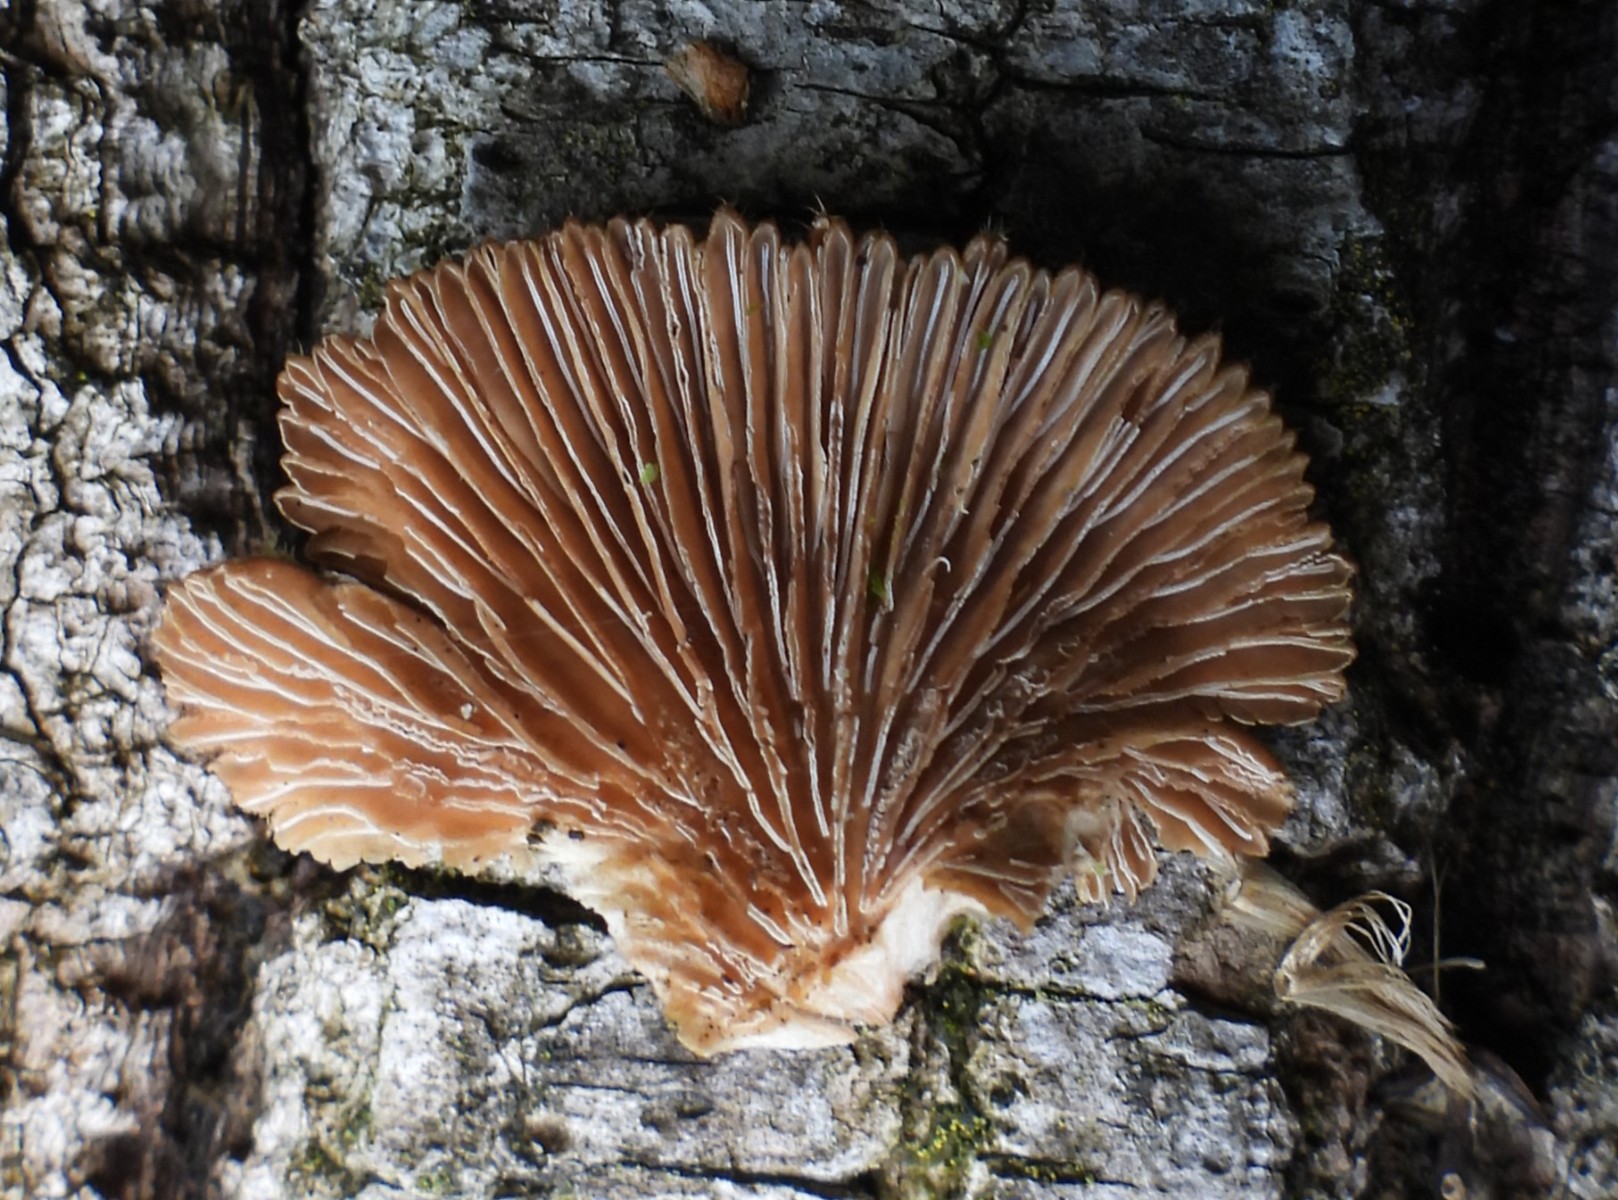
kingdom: Fungi
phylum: Basidiomycota
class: Agaricomycetes
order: Agaricales
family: Schizophyllaceae
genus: Schizophyllum
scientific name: Schizophyllum commune
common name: kløvblad
